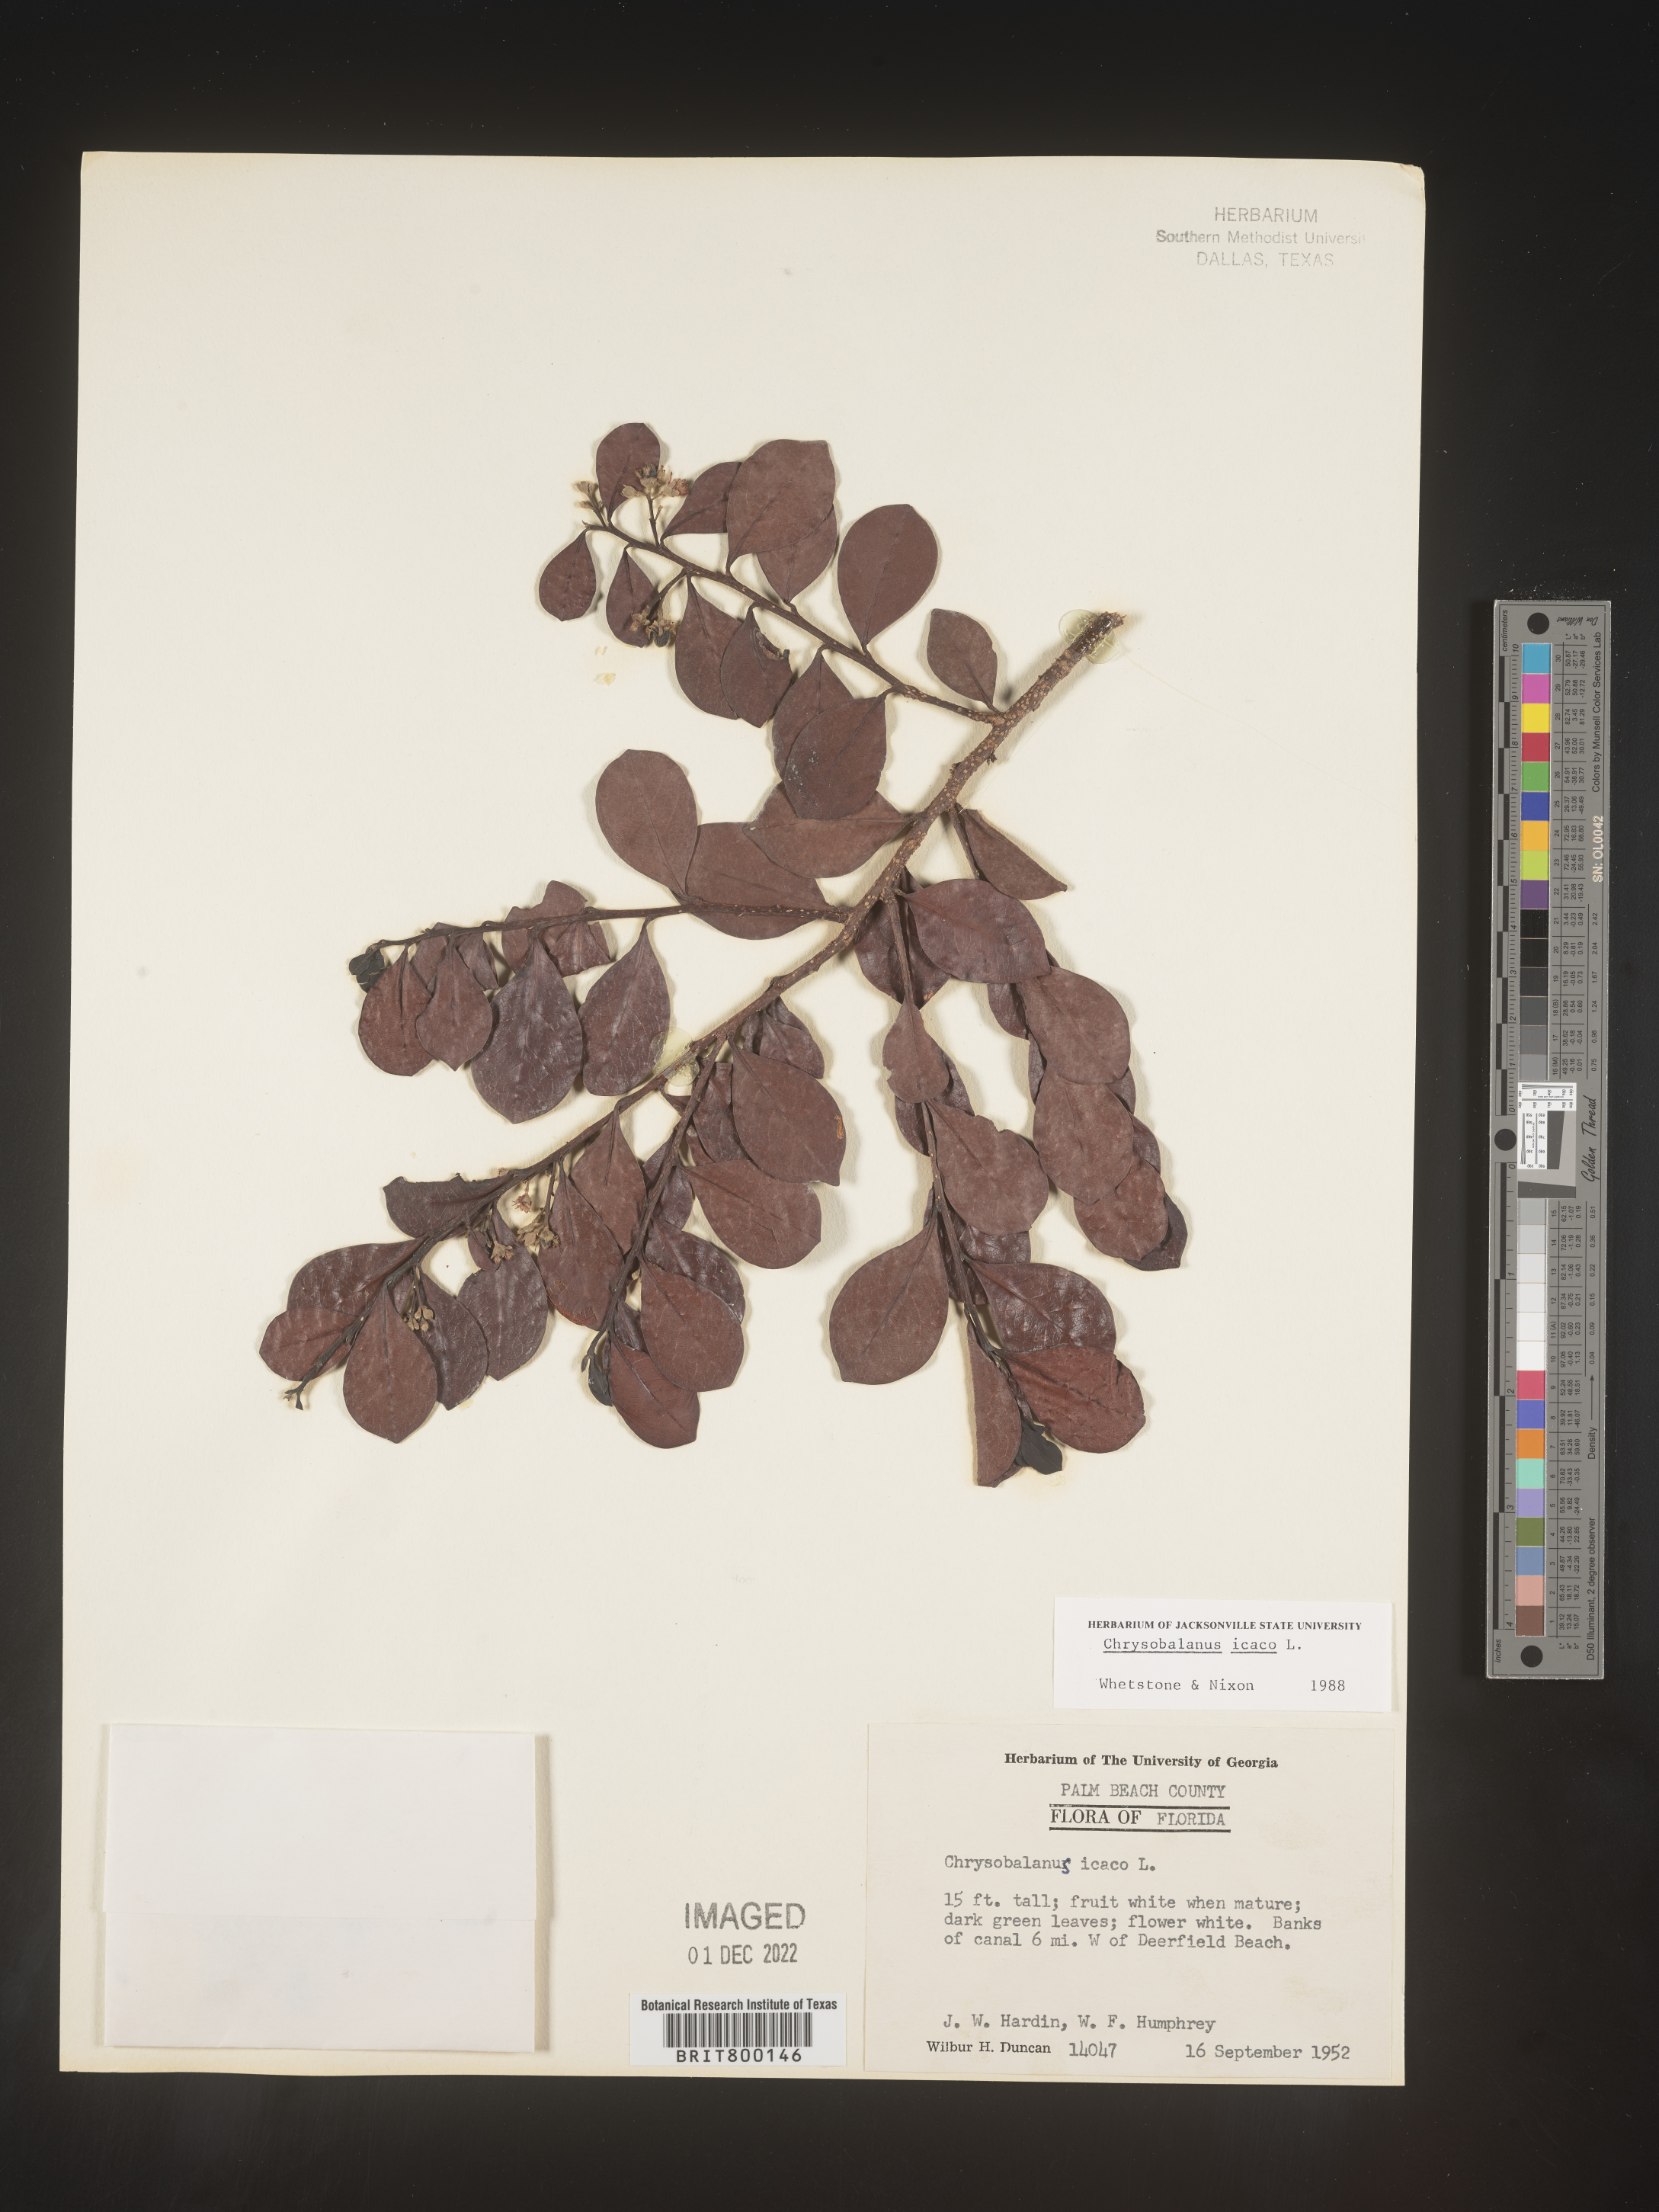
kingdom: Plantae
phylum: Tracheophyta
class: Magnoliopsida
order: Malpighiales
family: Chrysobalanaceae
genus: Chrysobalanus
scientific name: Chrysobalanus icaco
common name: Coco plum
